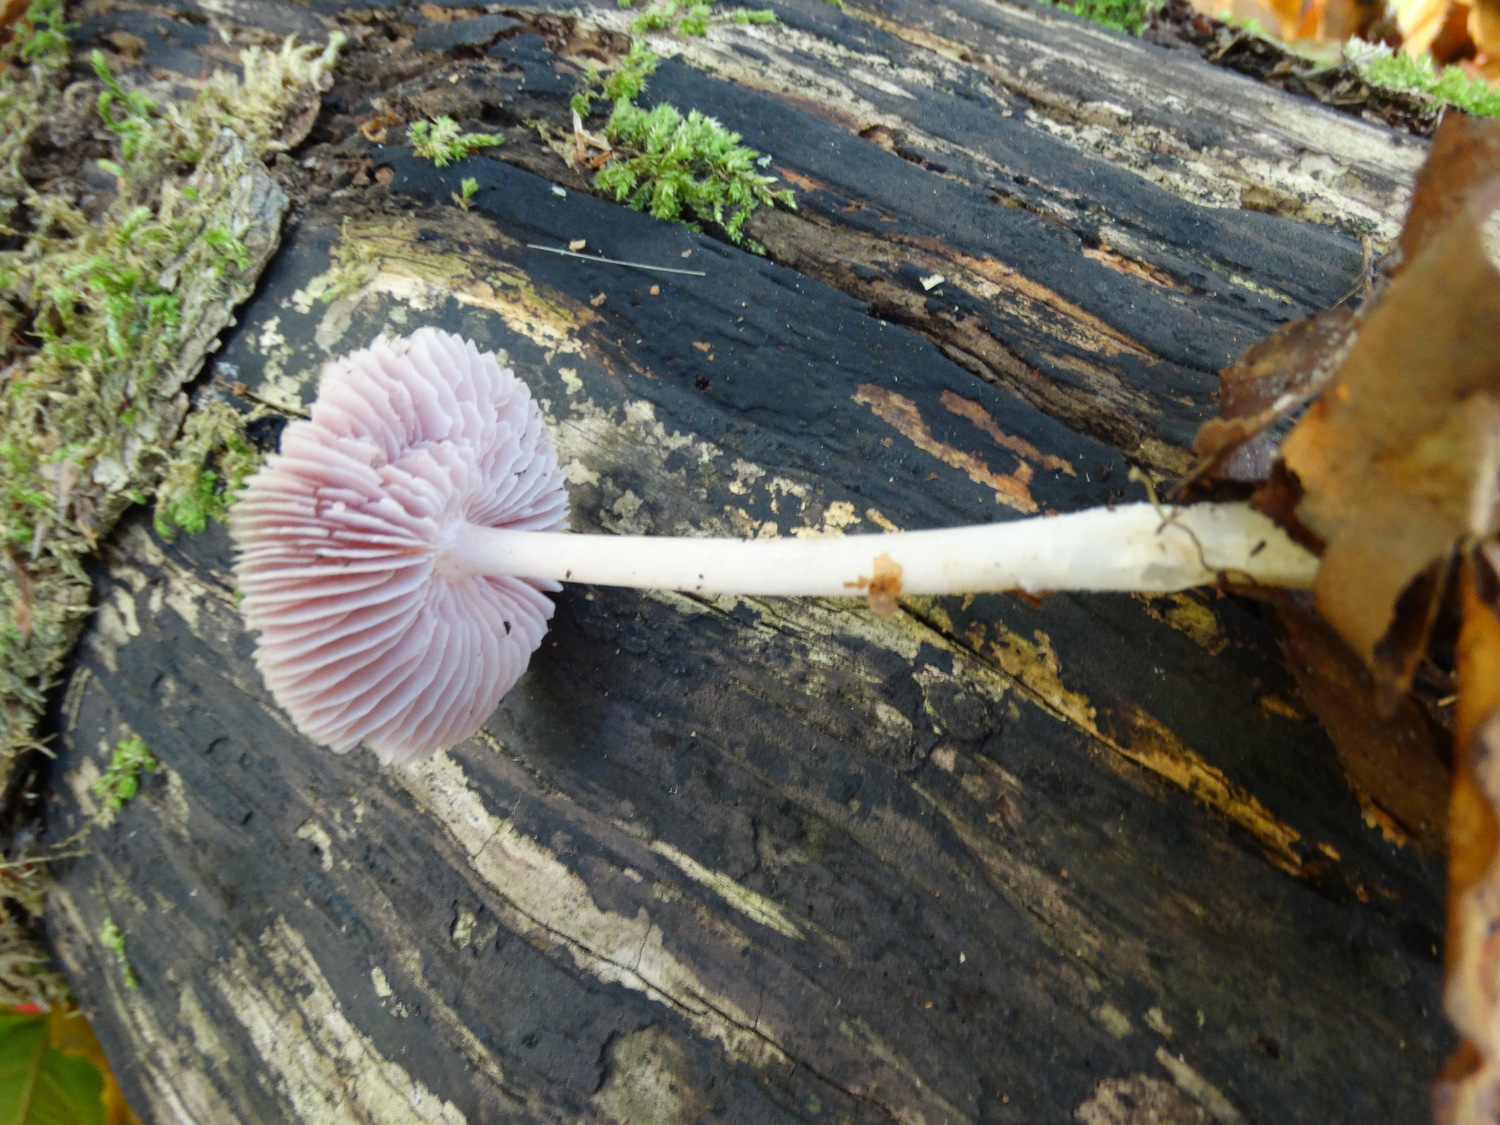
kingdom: Fungi
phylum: Basidiomycota
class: Agaricomycetes
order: Agaricales
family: Mycenaceae
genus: Mycena
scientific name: Mycena
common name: huesvamp
